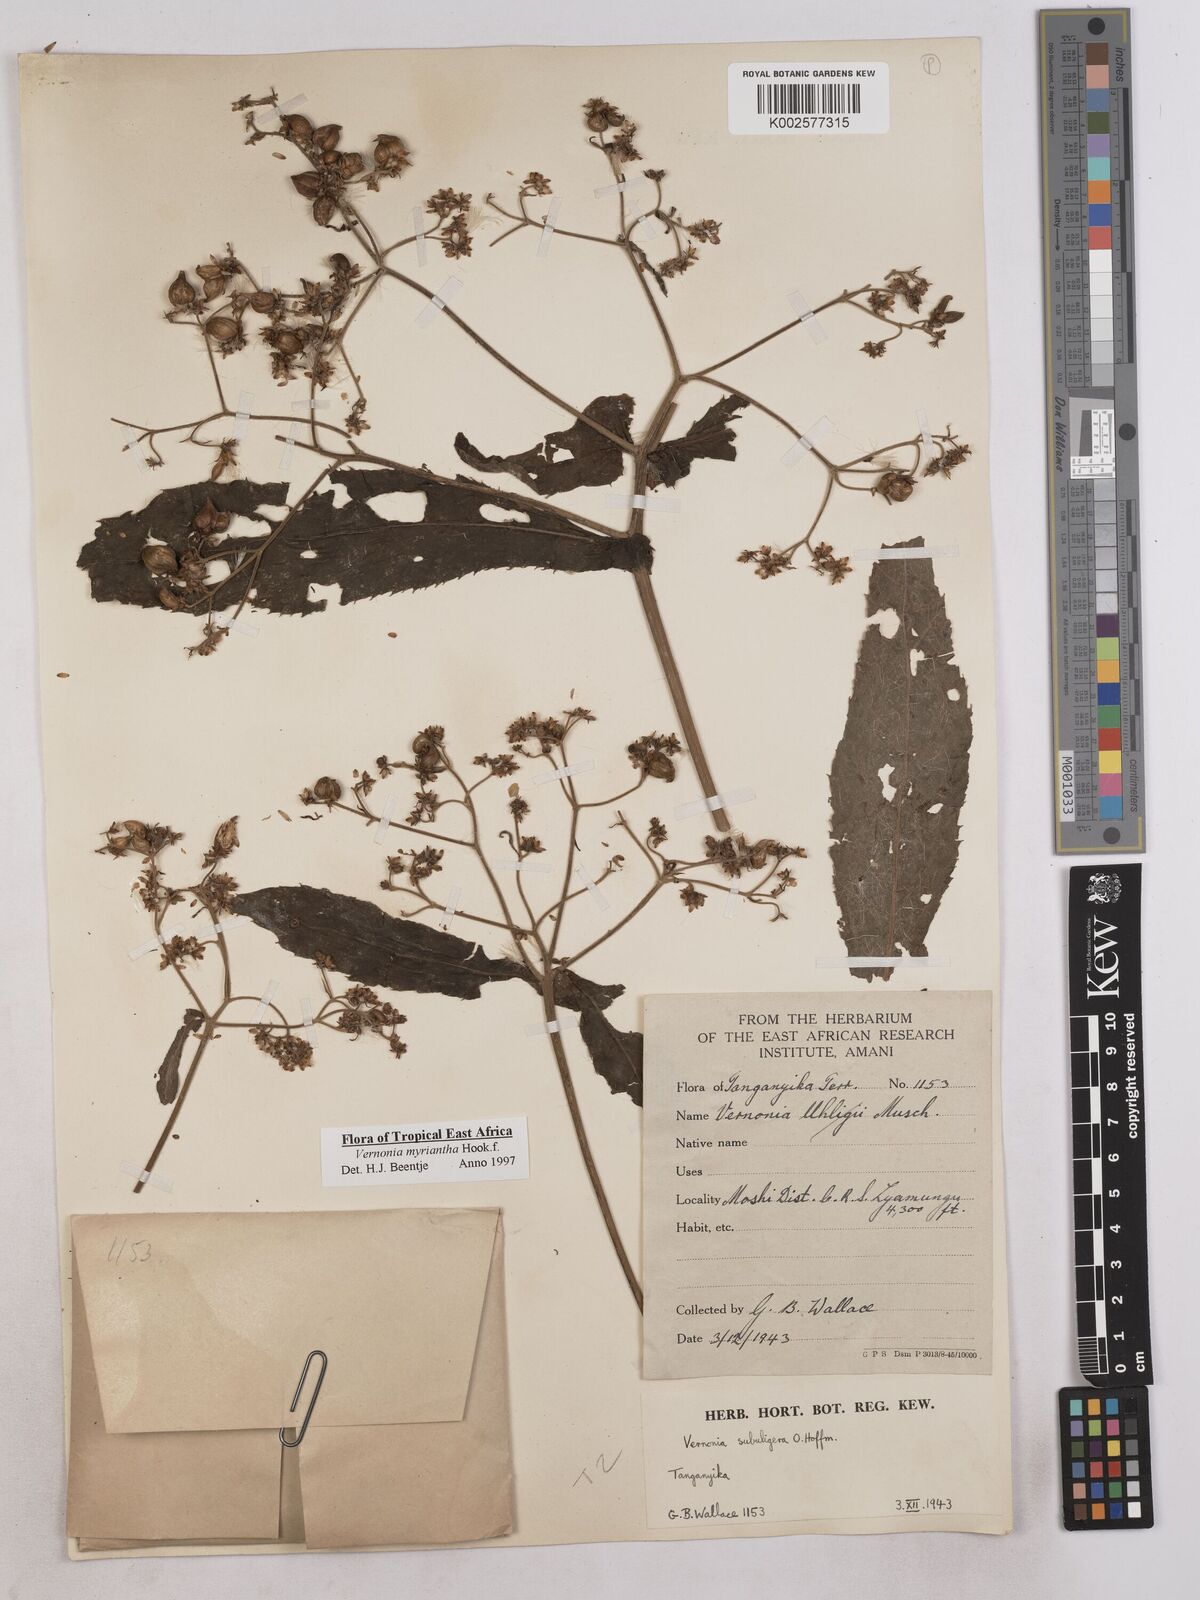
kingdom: Plantae
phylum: Tracheophyta
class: Magnoliopsida
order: Asterales
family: Asteraceae
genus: Gymnanthemum
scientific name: Gymnanthemum myrianthum
